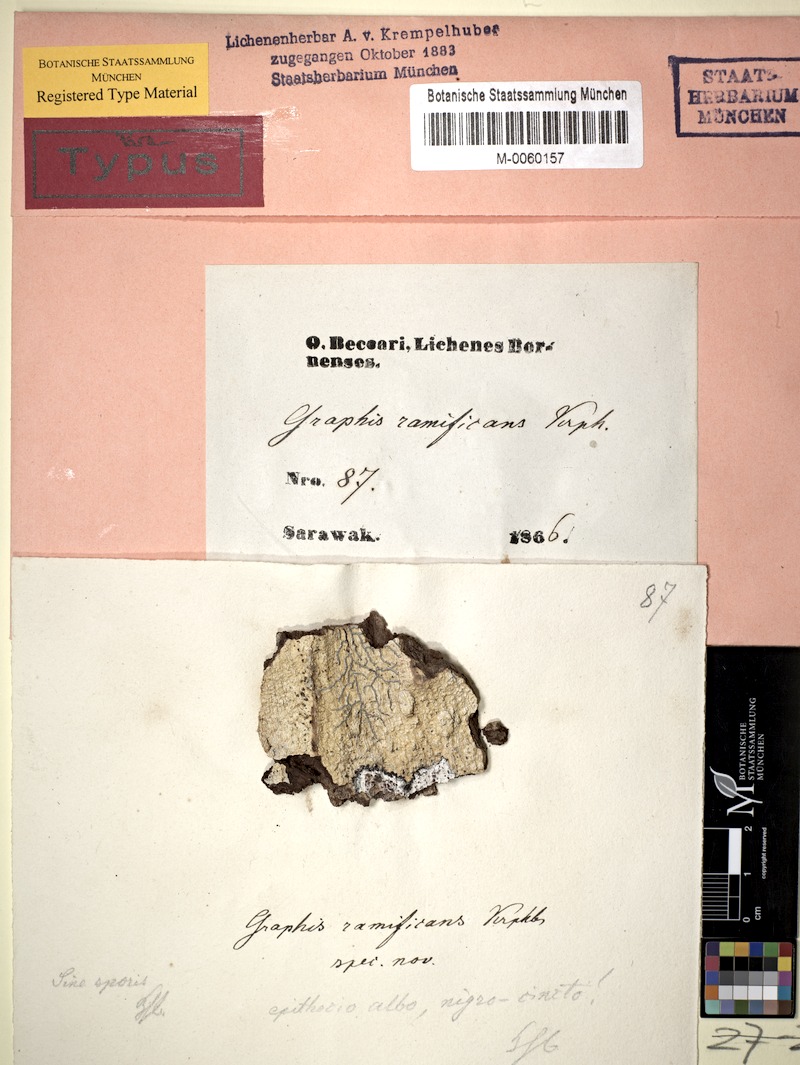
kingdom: Fungi
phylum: Ascomycota
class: Lecanoromycetes
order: Ostropales
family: Graphidaceae
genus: Sarcographa
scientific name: Sarcographa ramificans
